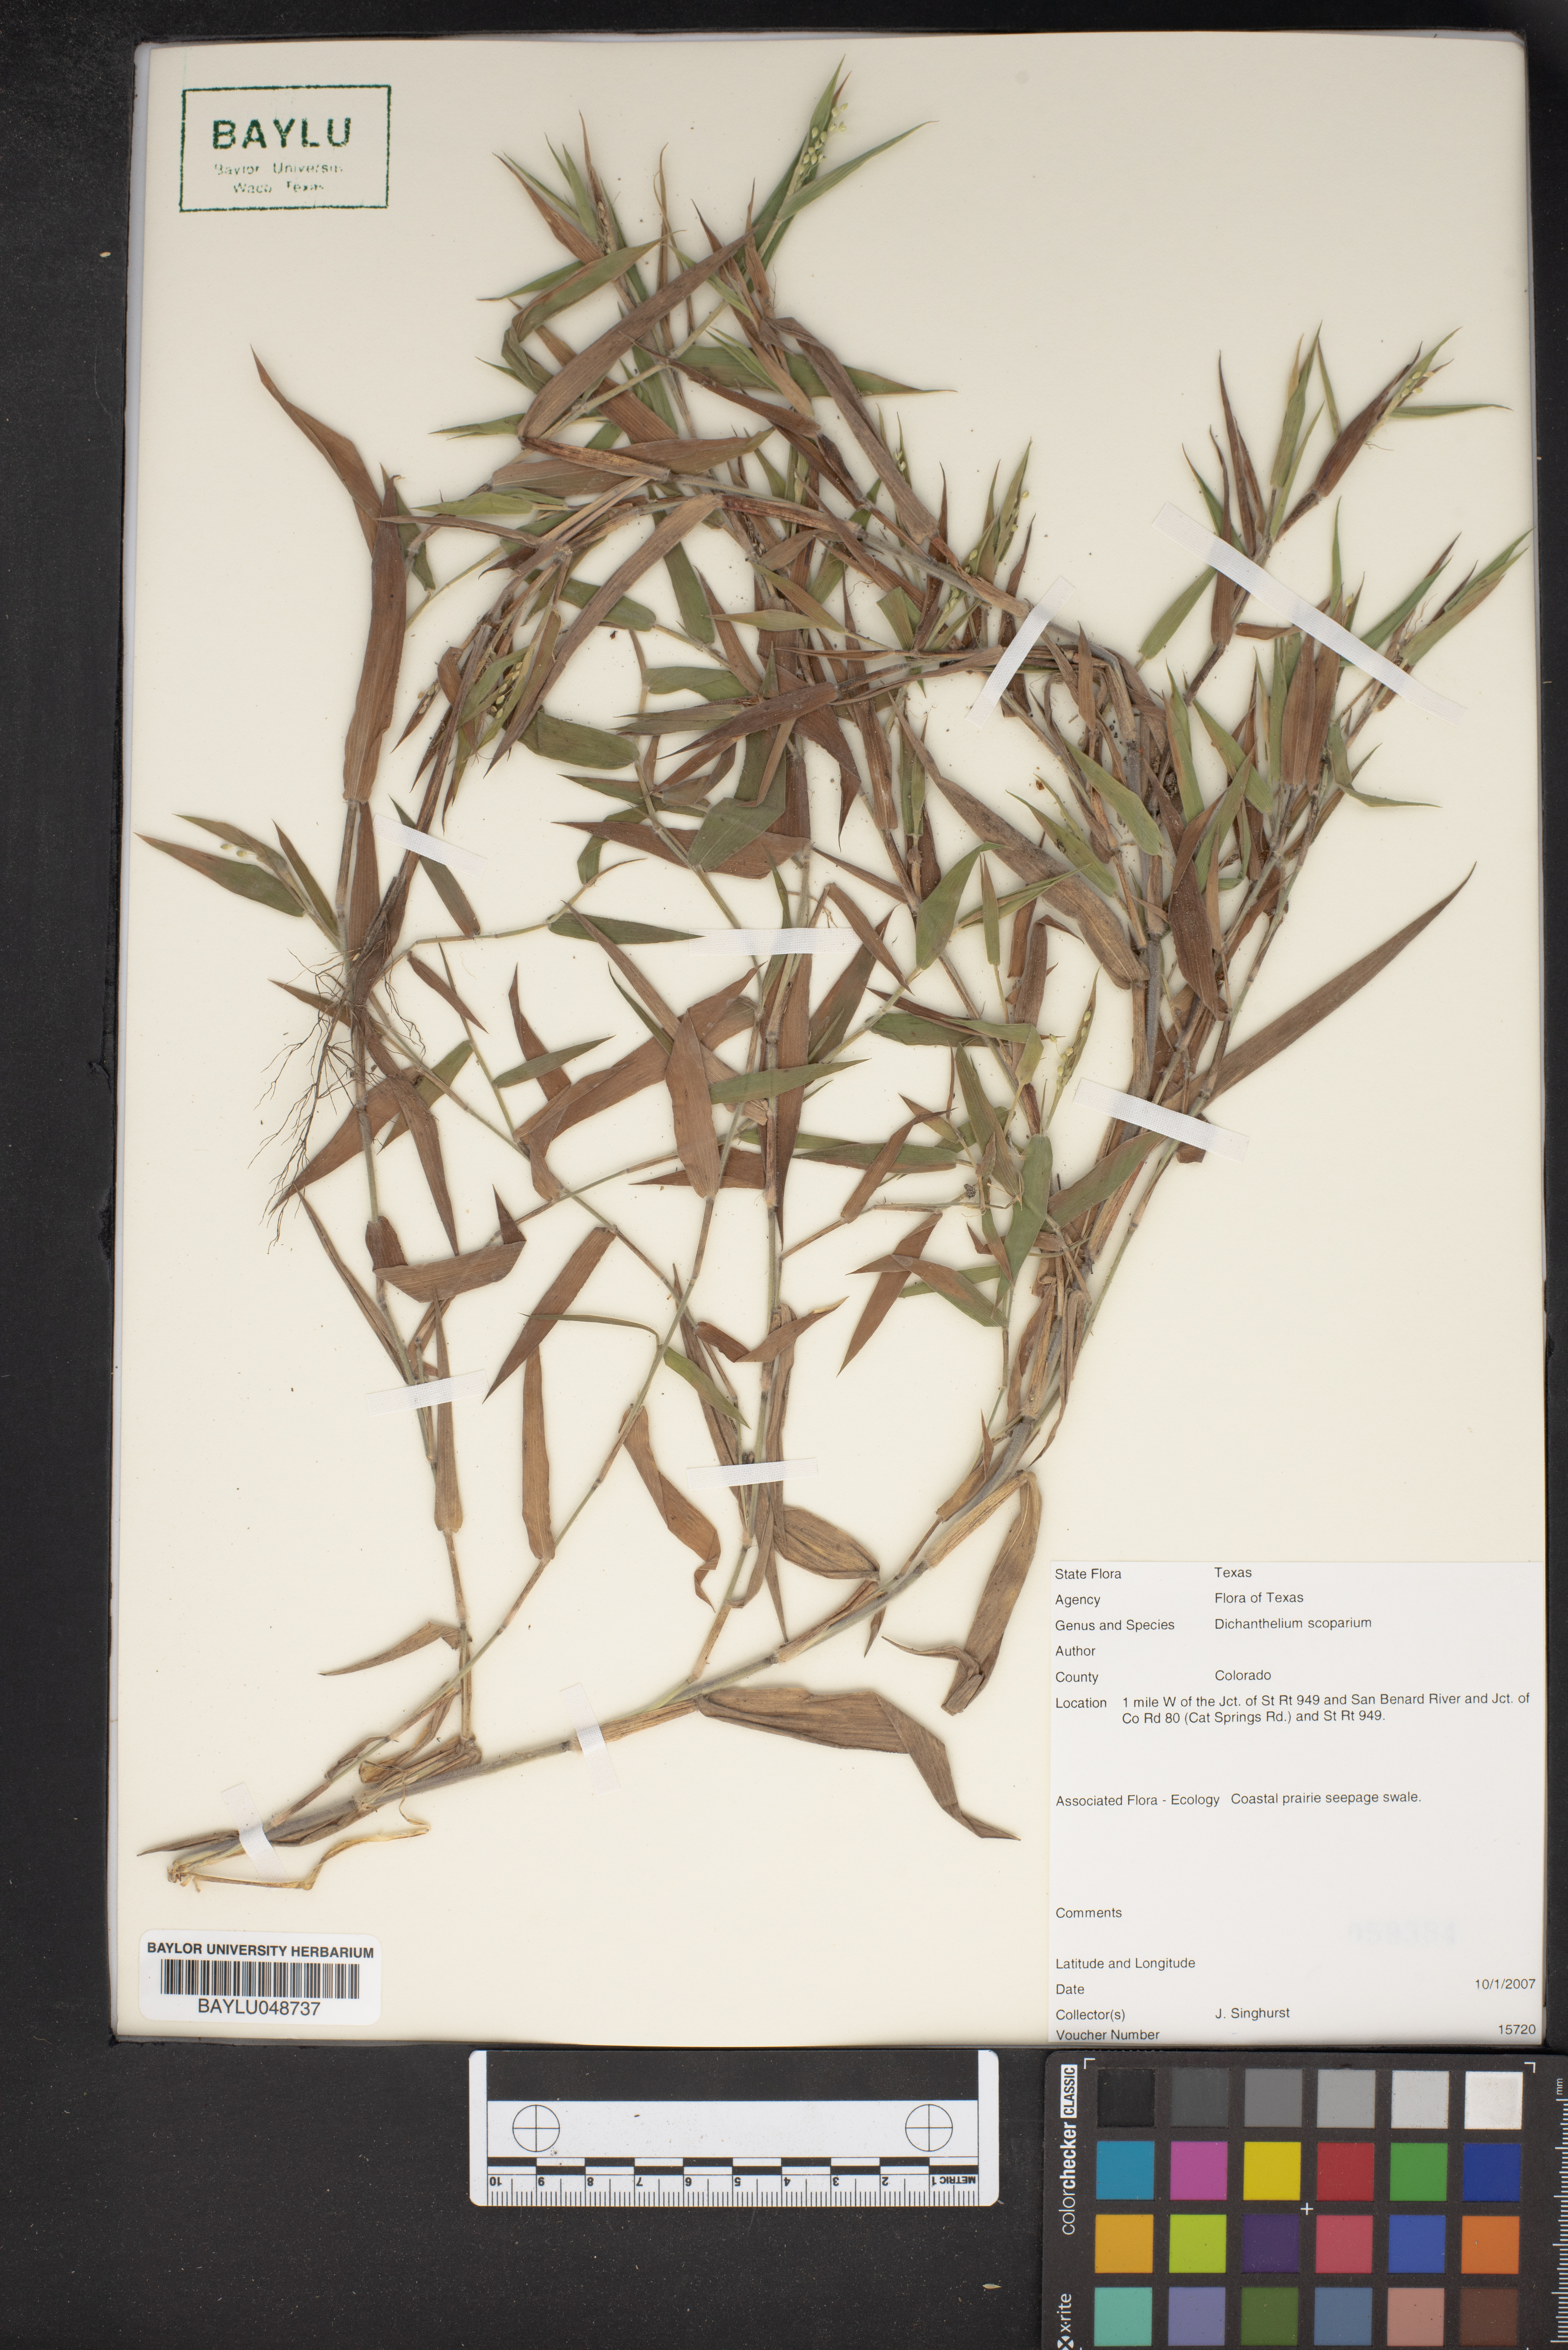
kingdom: Plantae
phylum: Tracheophyta
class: Liliopsida
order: Poales
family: Poaceae
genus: Dichanthelium
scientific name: Dichanthelium scoparium
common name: Velvety panic grass
